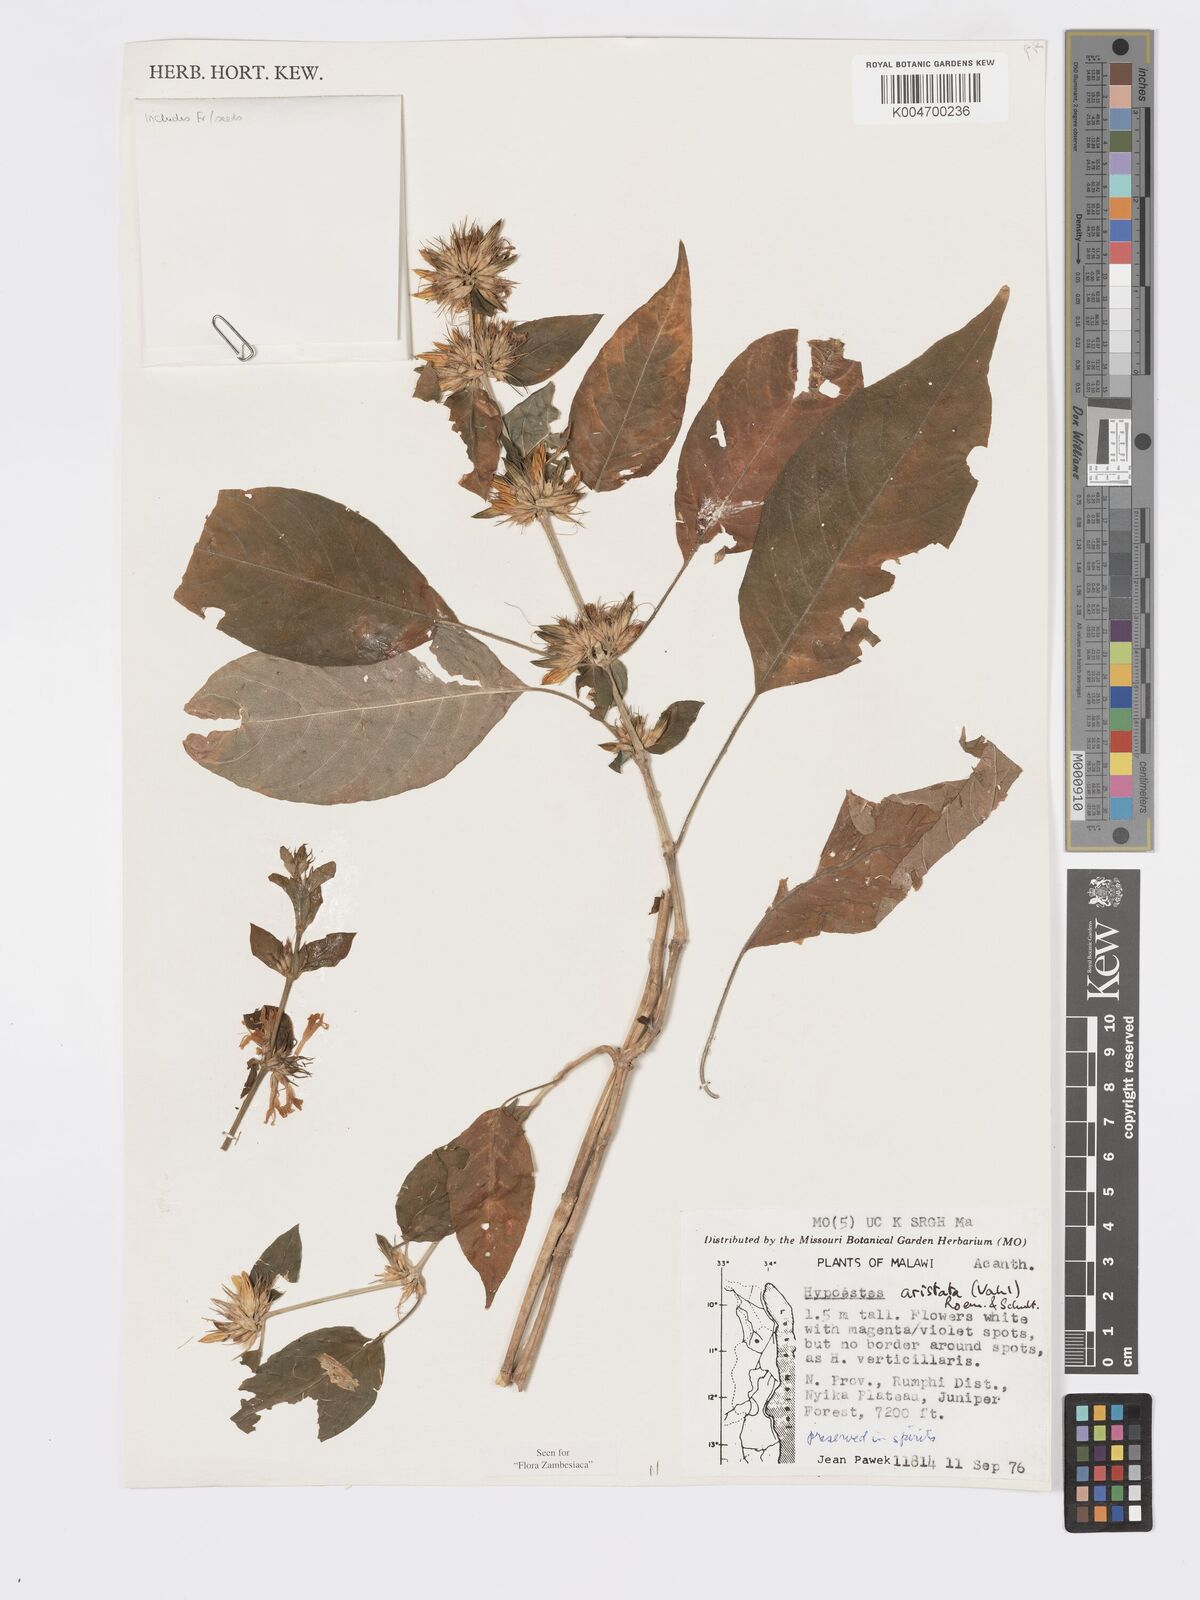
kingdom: Plantae
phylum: Tracheophyta
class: Magnoliopsida
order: Lamiales
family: Acanthaceae
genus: Hypoestes
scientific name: Hypoestes aristata
